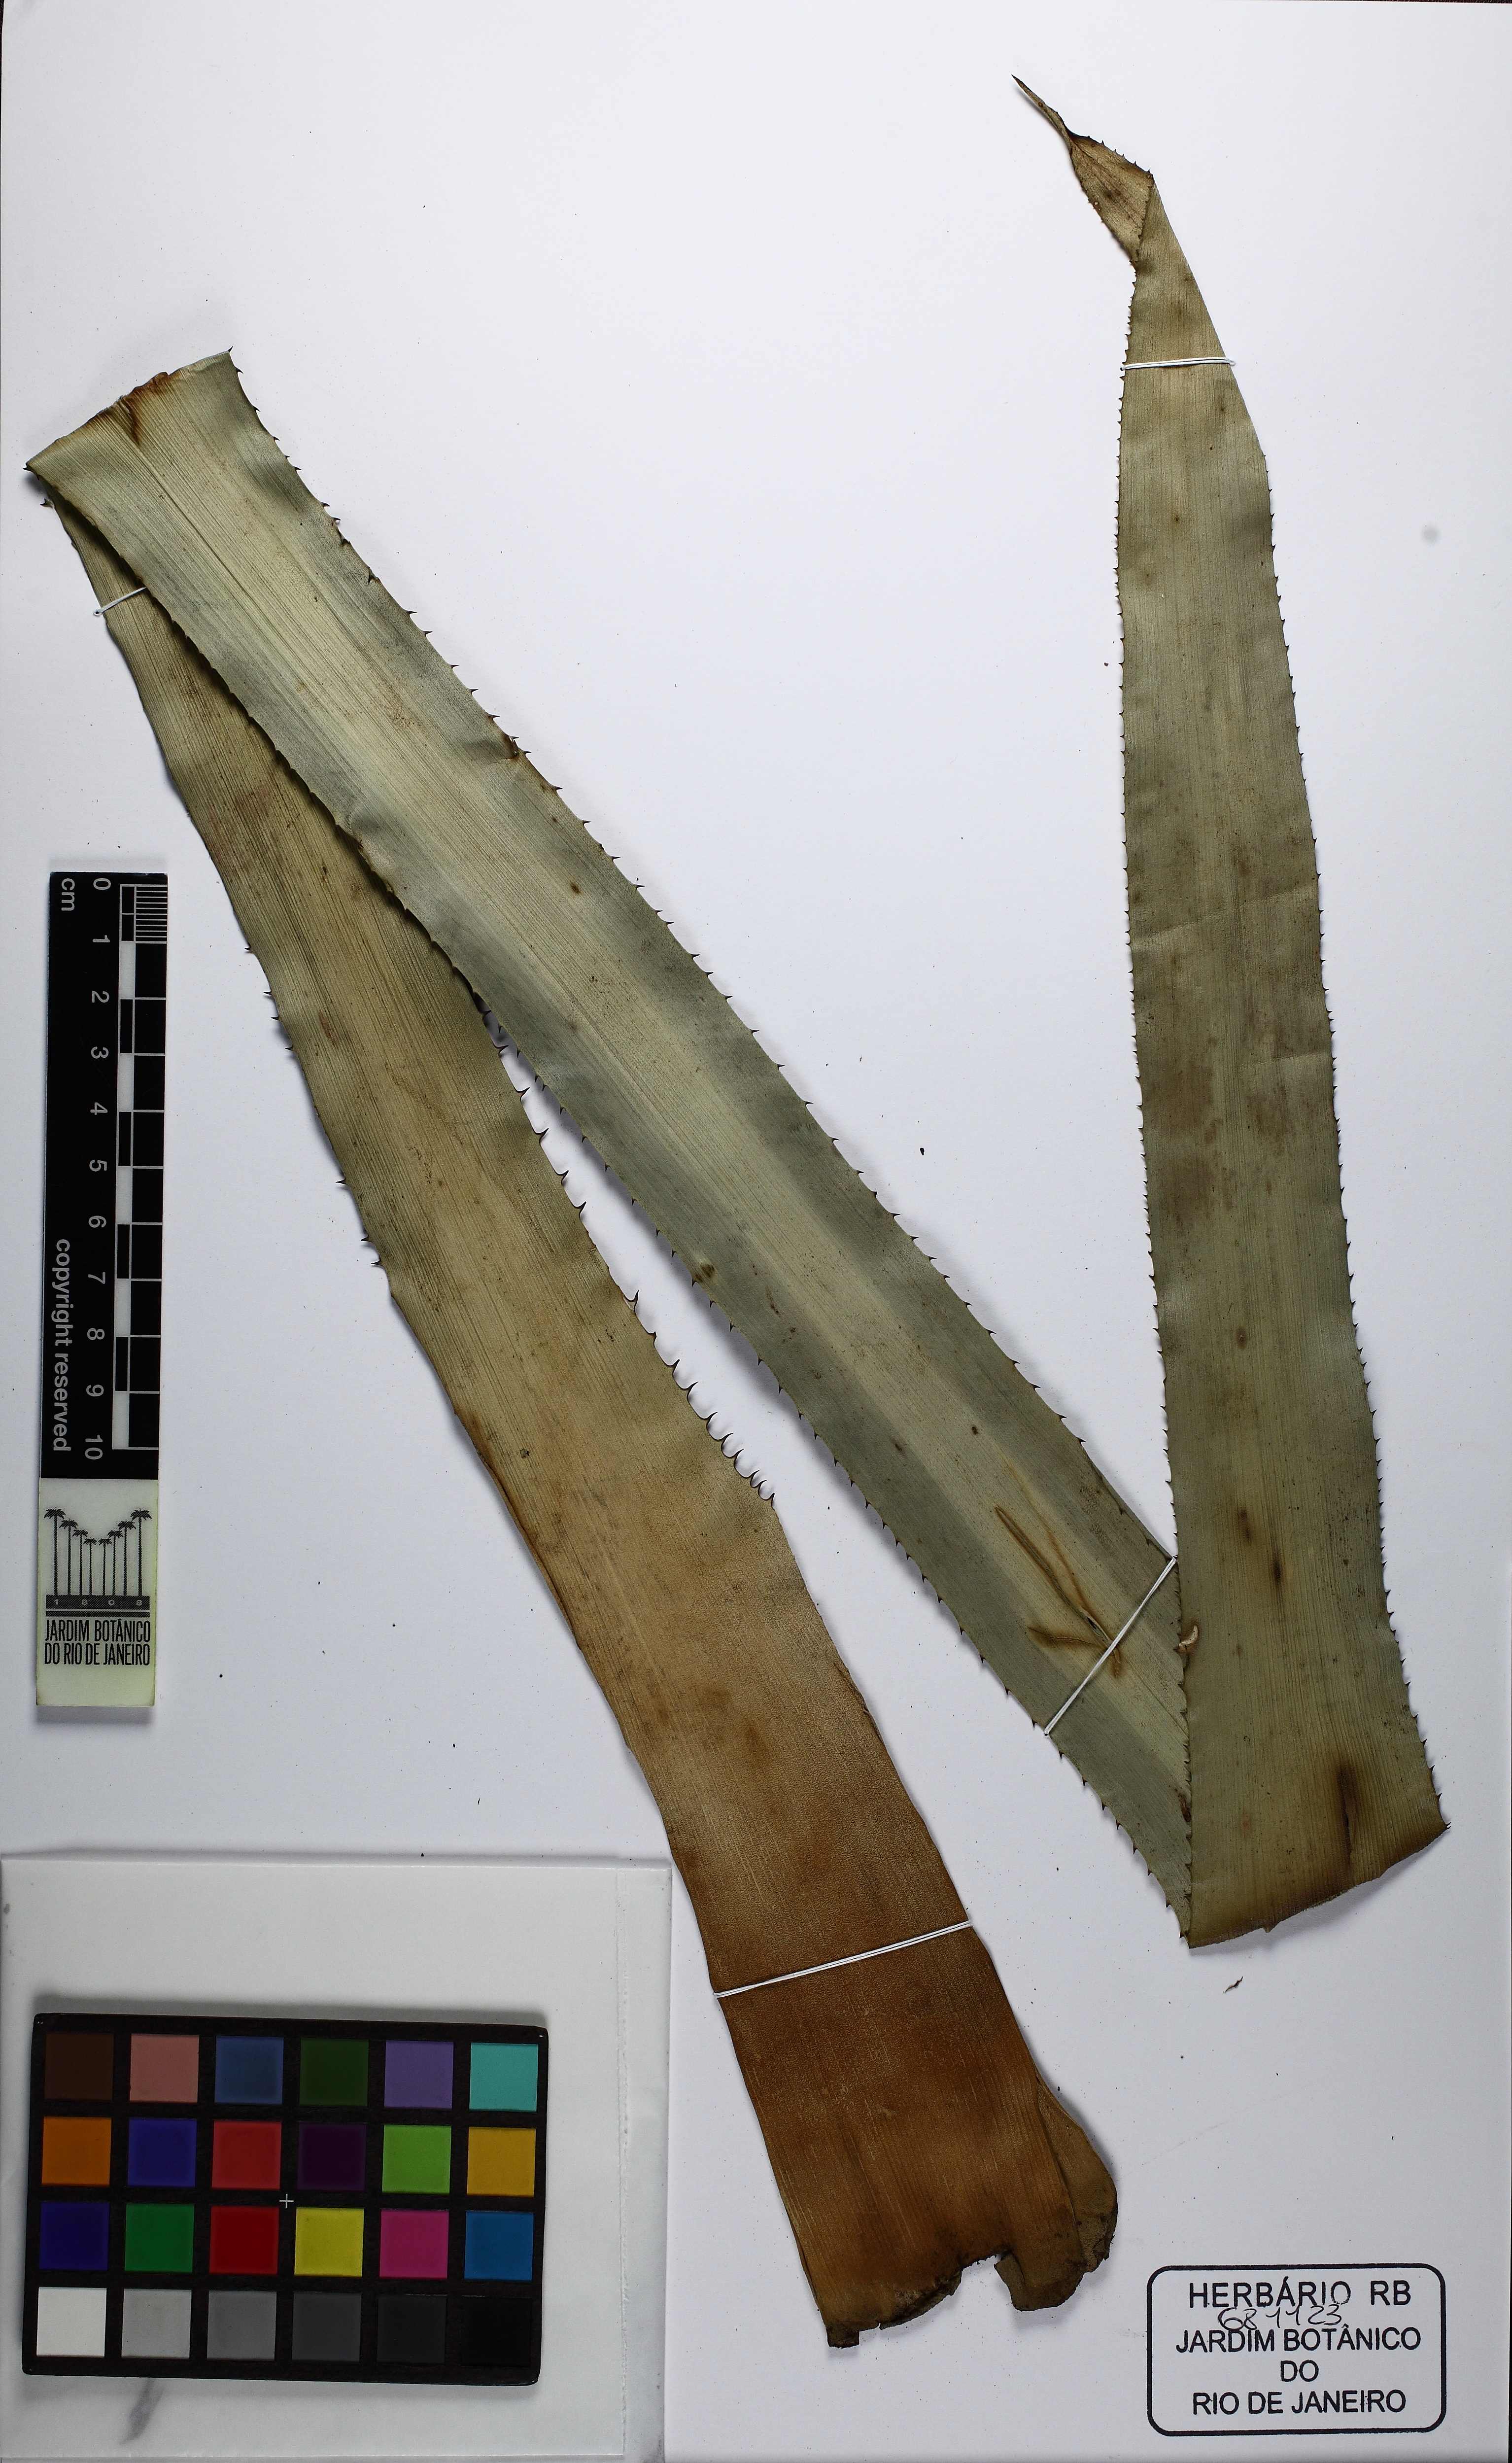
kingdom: Plantae
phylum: Tracheophyta
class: Liliopsida
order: Poales
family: Bromeliaceae
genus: Aechmea
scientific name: Aechmea ramosa
